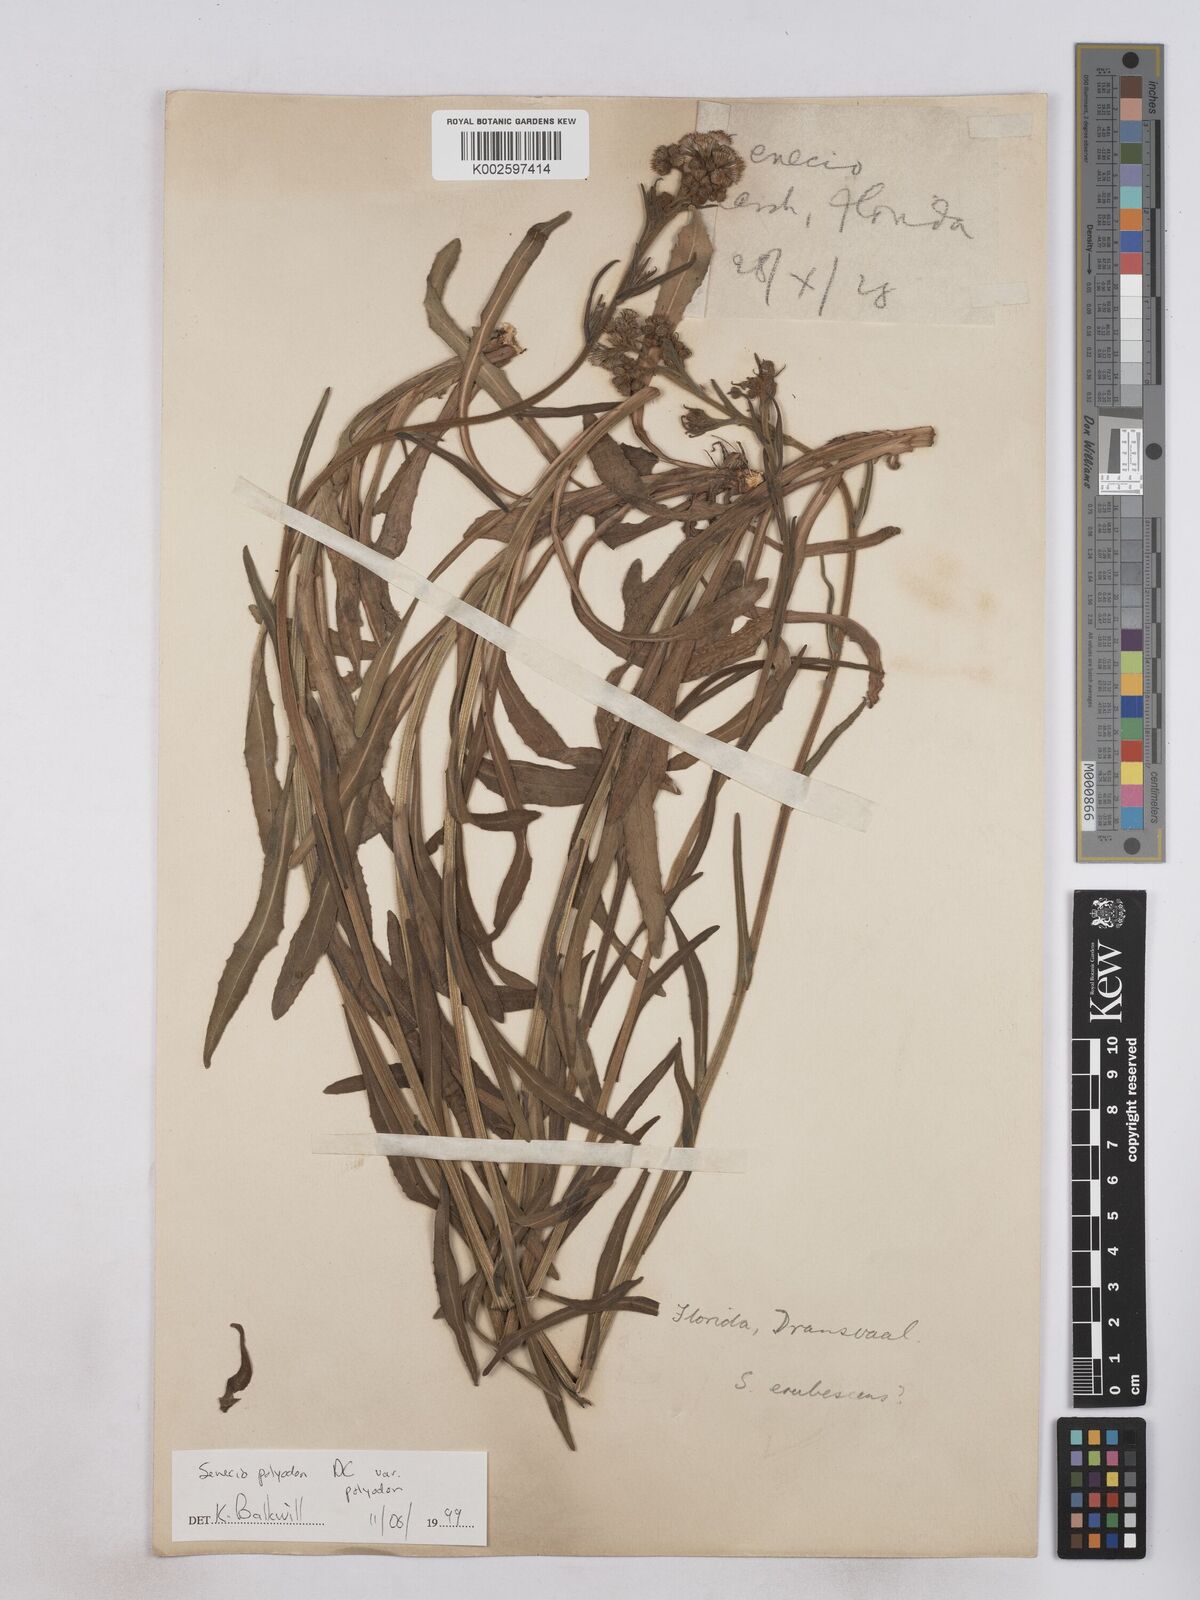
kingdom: Plantae
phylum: Tracheophyta
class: Magnoliopsida
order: Asterales
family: Asteraceae
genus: Senecio
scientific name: Senecio polyodon
